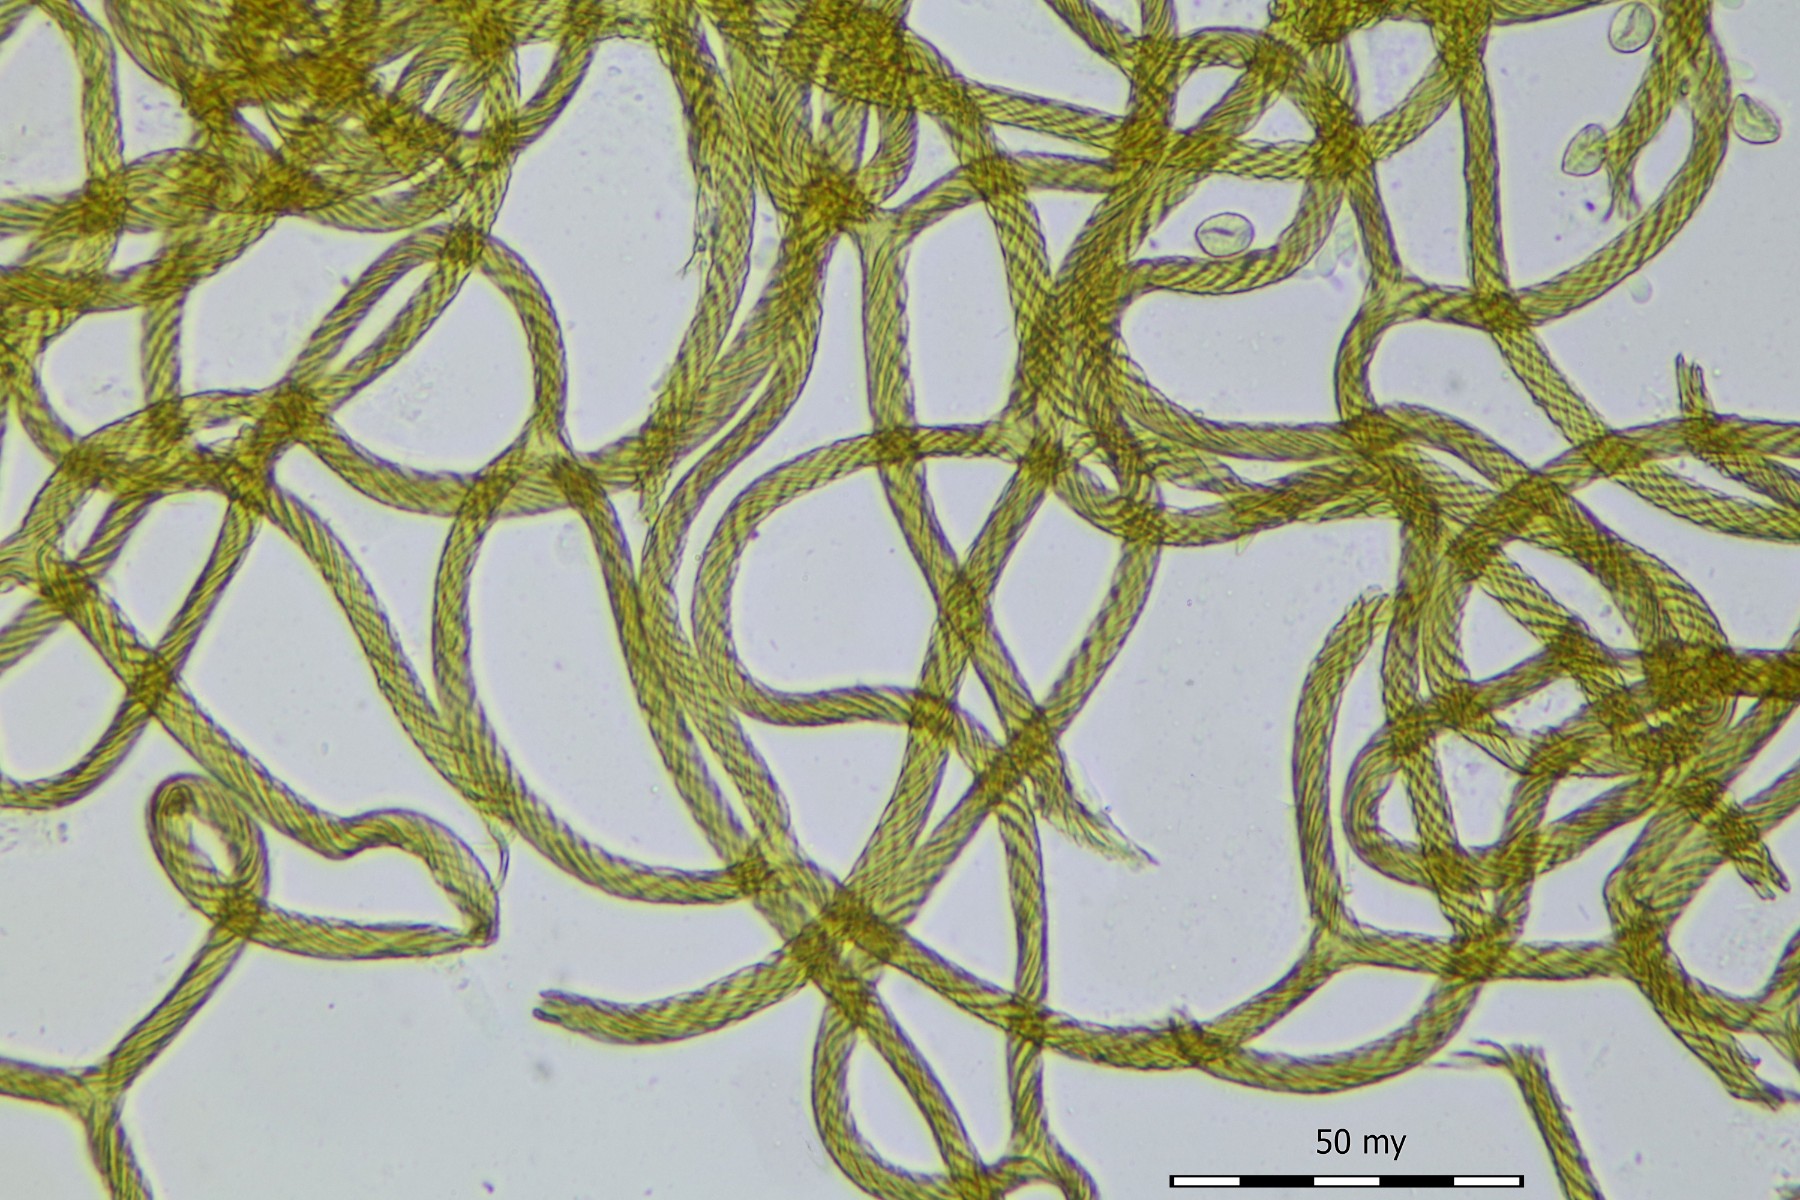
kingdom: Protozoa
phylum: Mycetozoa
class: Myxomycetes
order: Trichiales
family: Arcyriaceae
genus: Hemitrichia
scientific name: Hemitrichia clavata
